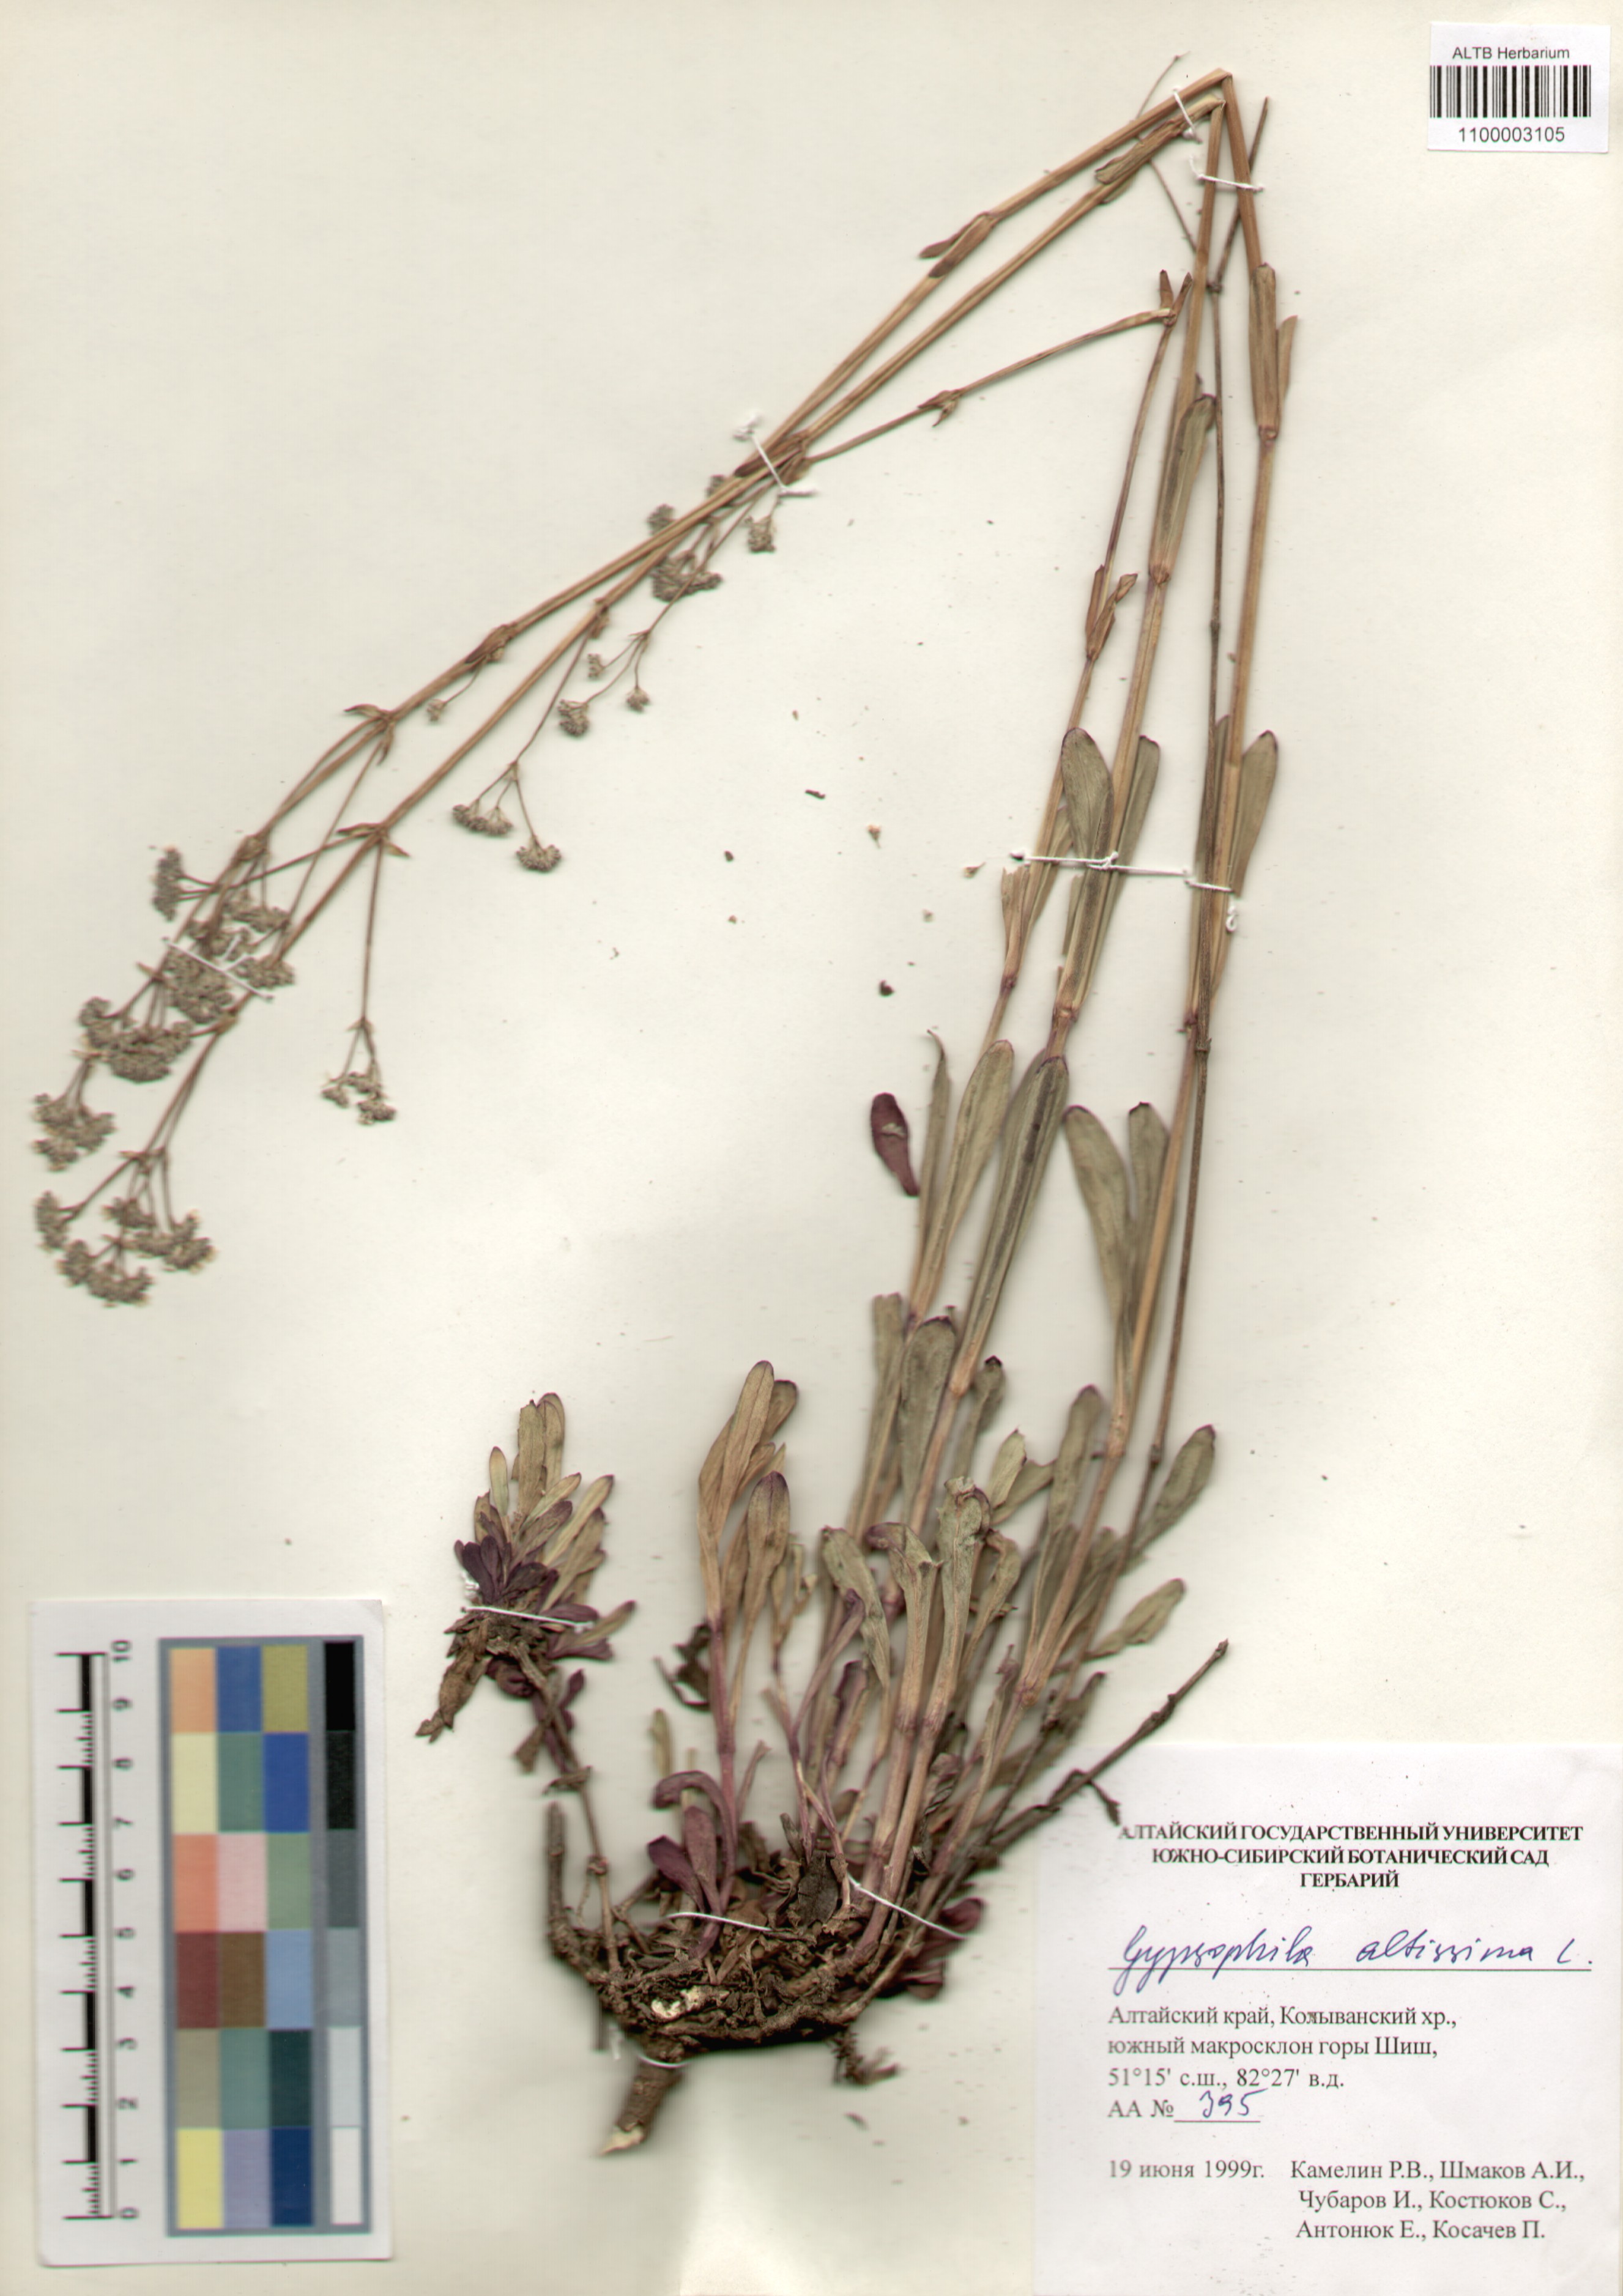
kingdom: Plantae
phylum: Tracheophyta
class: Magnoliopsida
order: Caryophyllales
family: Caryophyllaceae
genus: Gypsophila
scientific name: Gypsophila altissima
